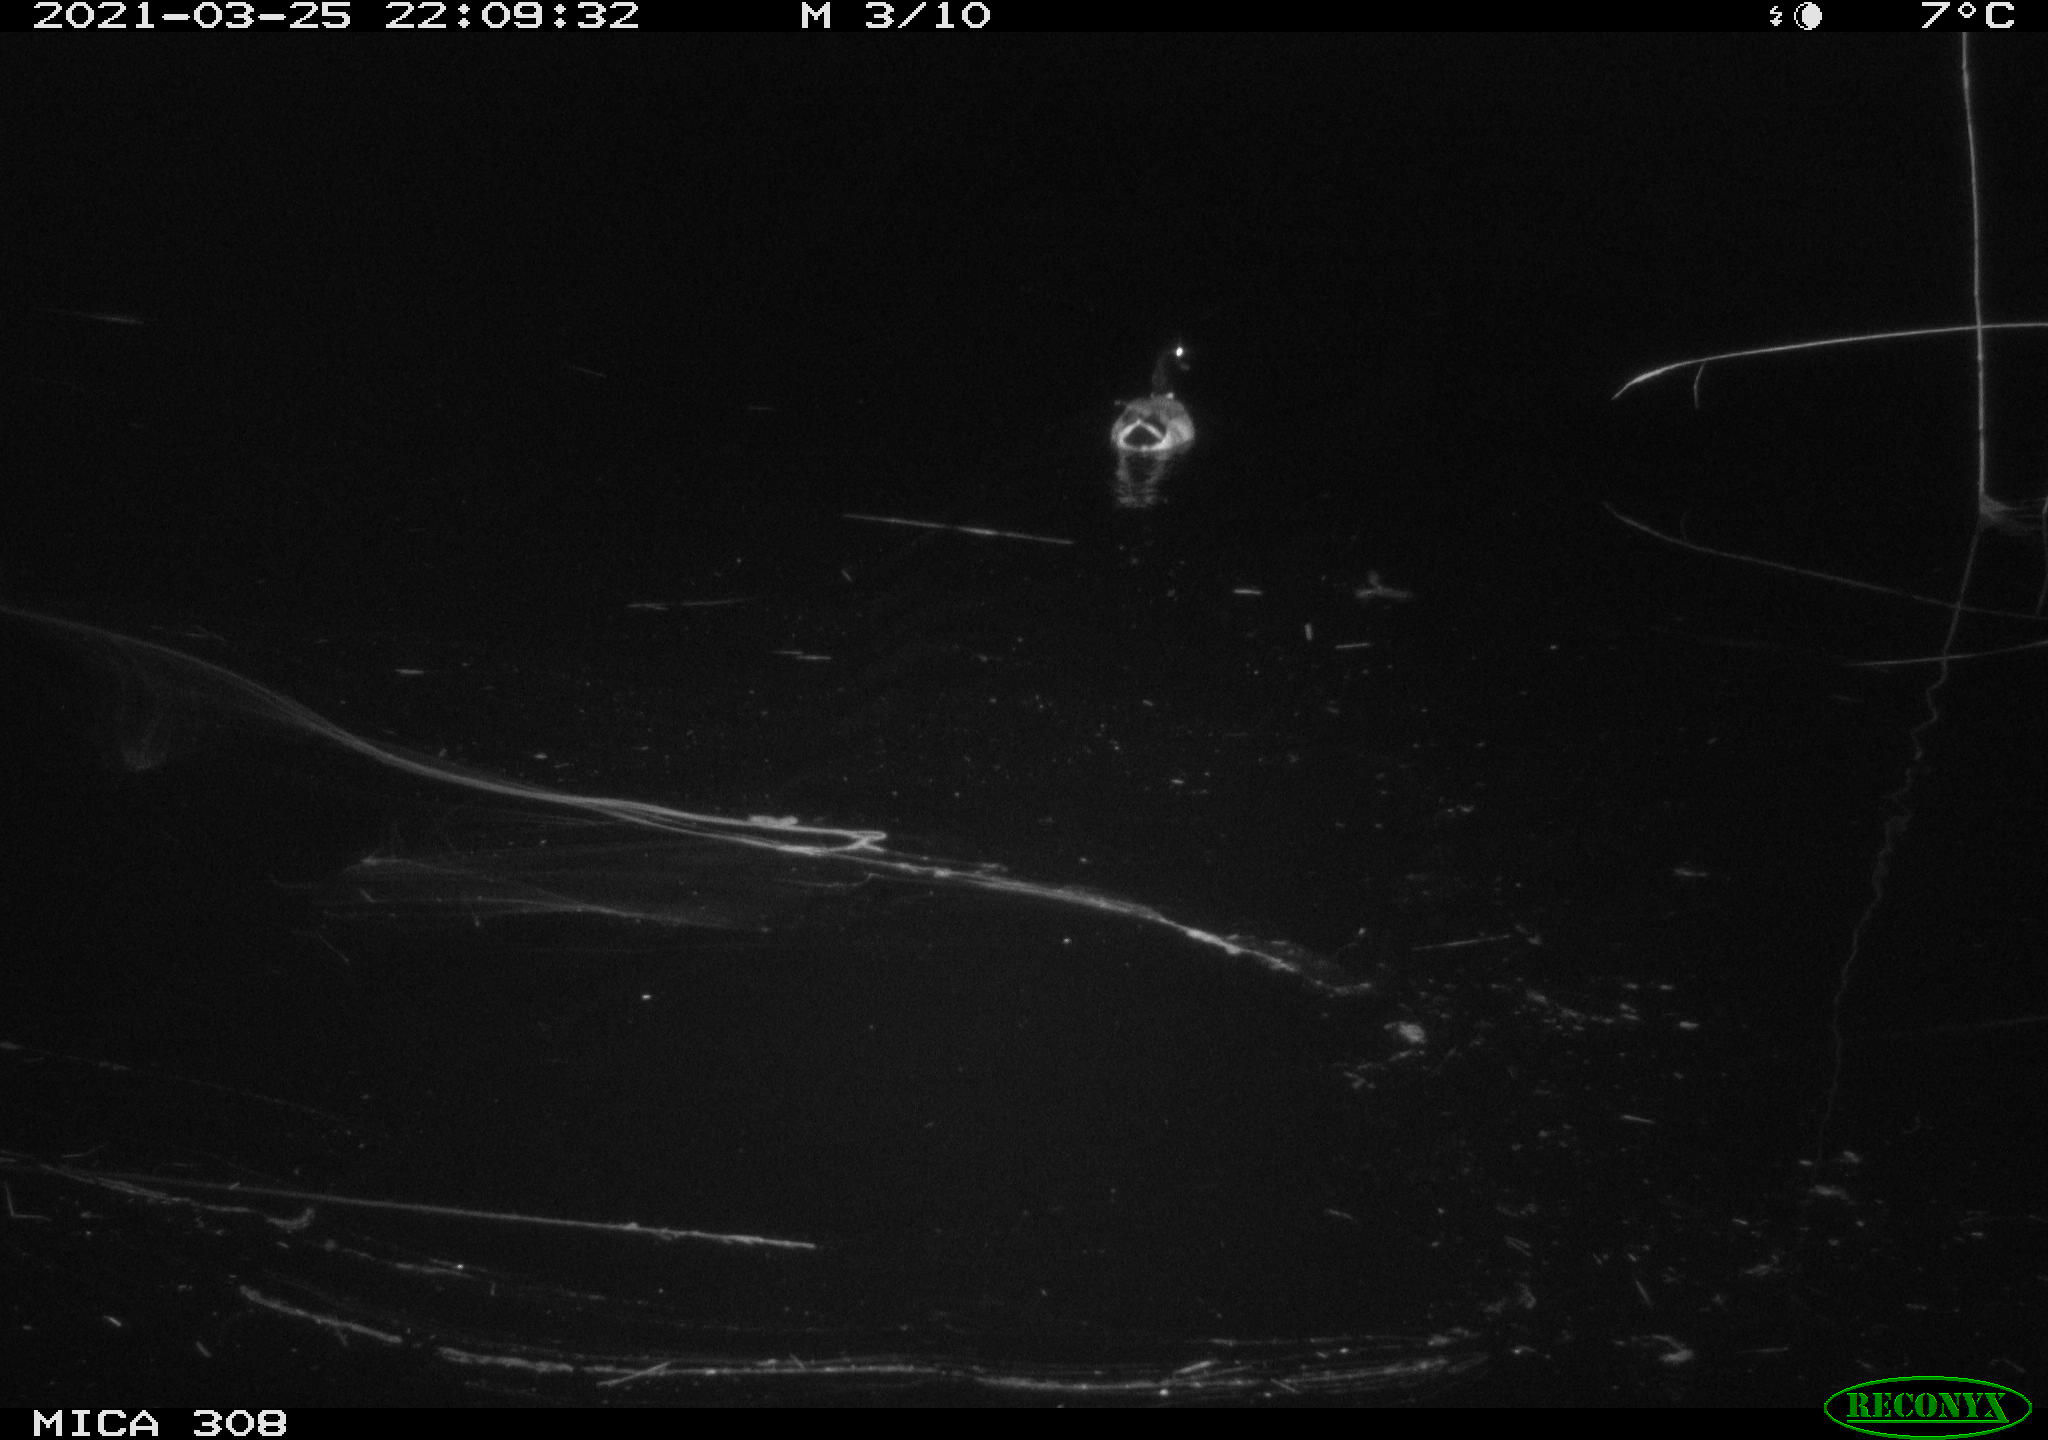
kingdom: Animalia
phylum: Chordata
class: Aves
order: Anseriformes
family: Anatidae
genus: Anas
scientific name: Anas platyrhynchos
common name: Mallard
